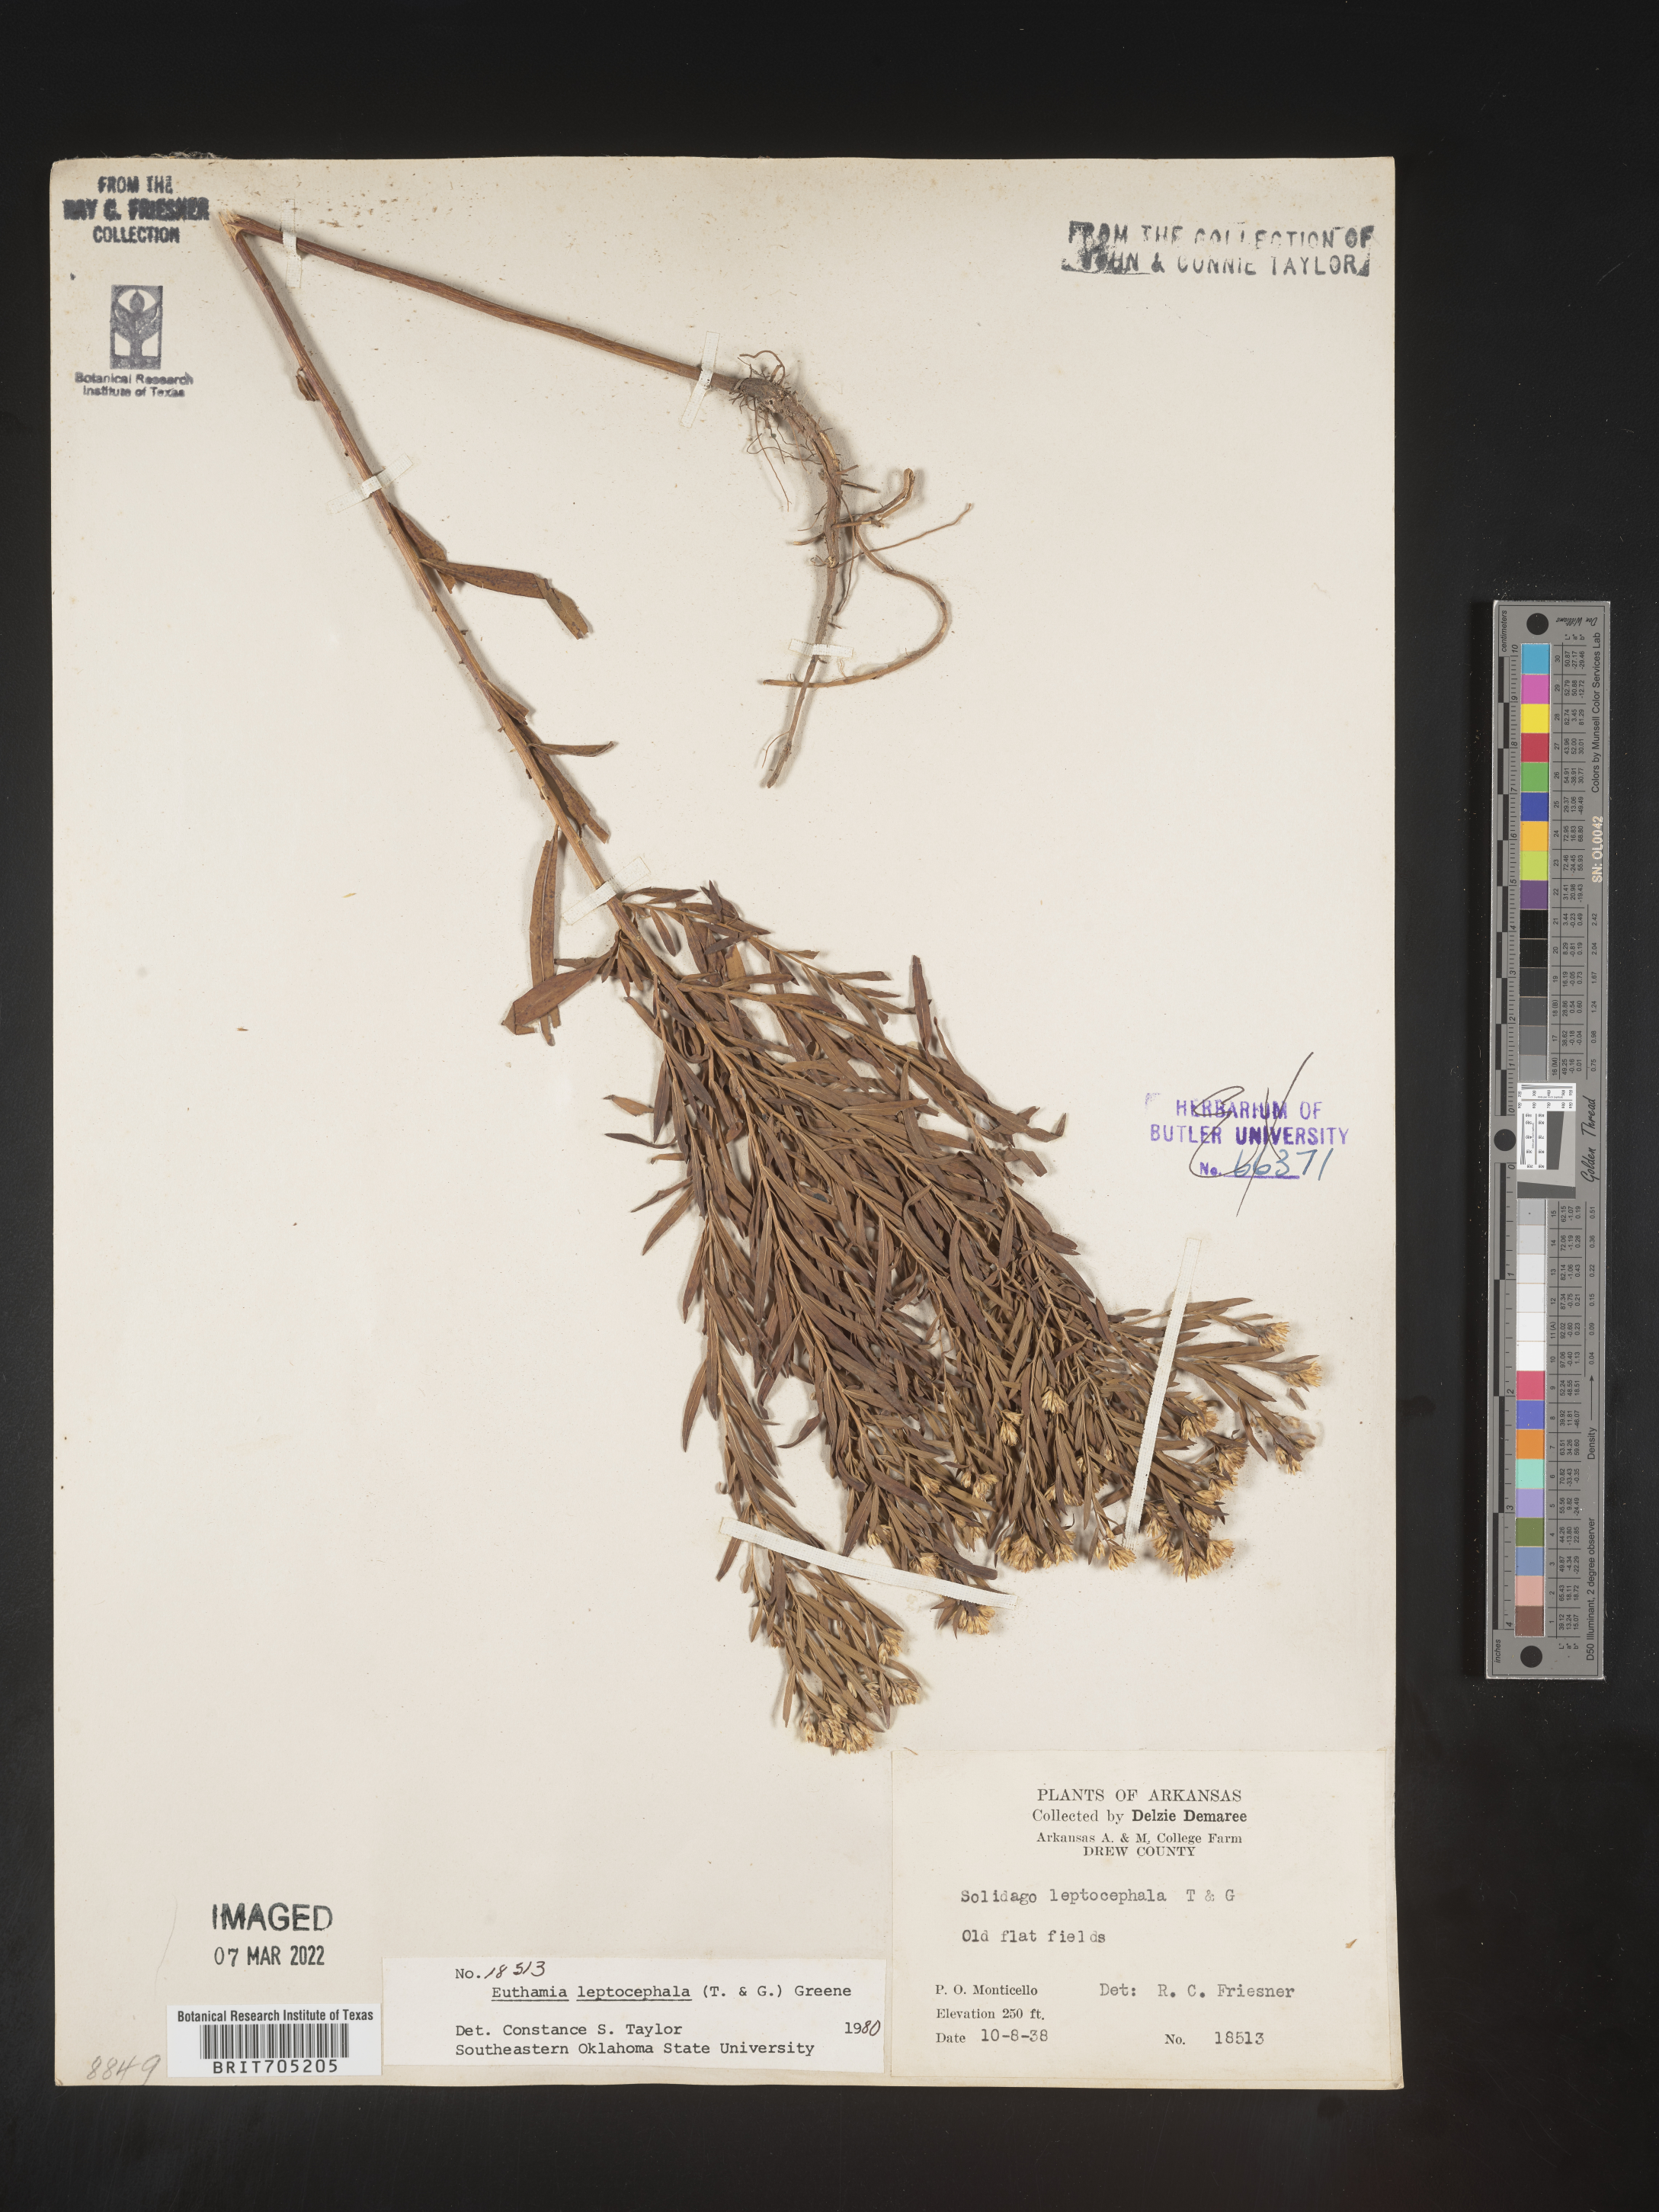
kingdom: Plantae
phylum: Tracheophyta
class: Magnoliopsida
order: Asterales
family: Asteraceae
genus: Euthamia
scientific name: Euthamia leptocephala
